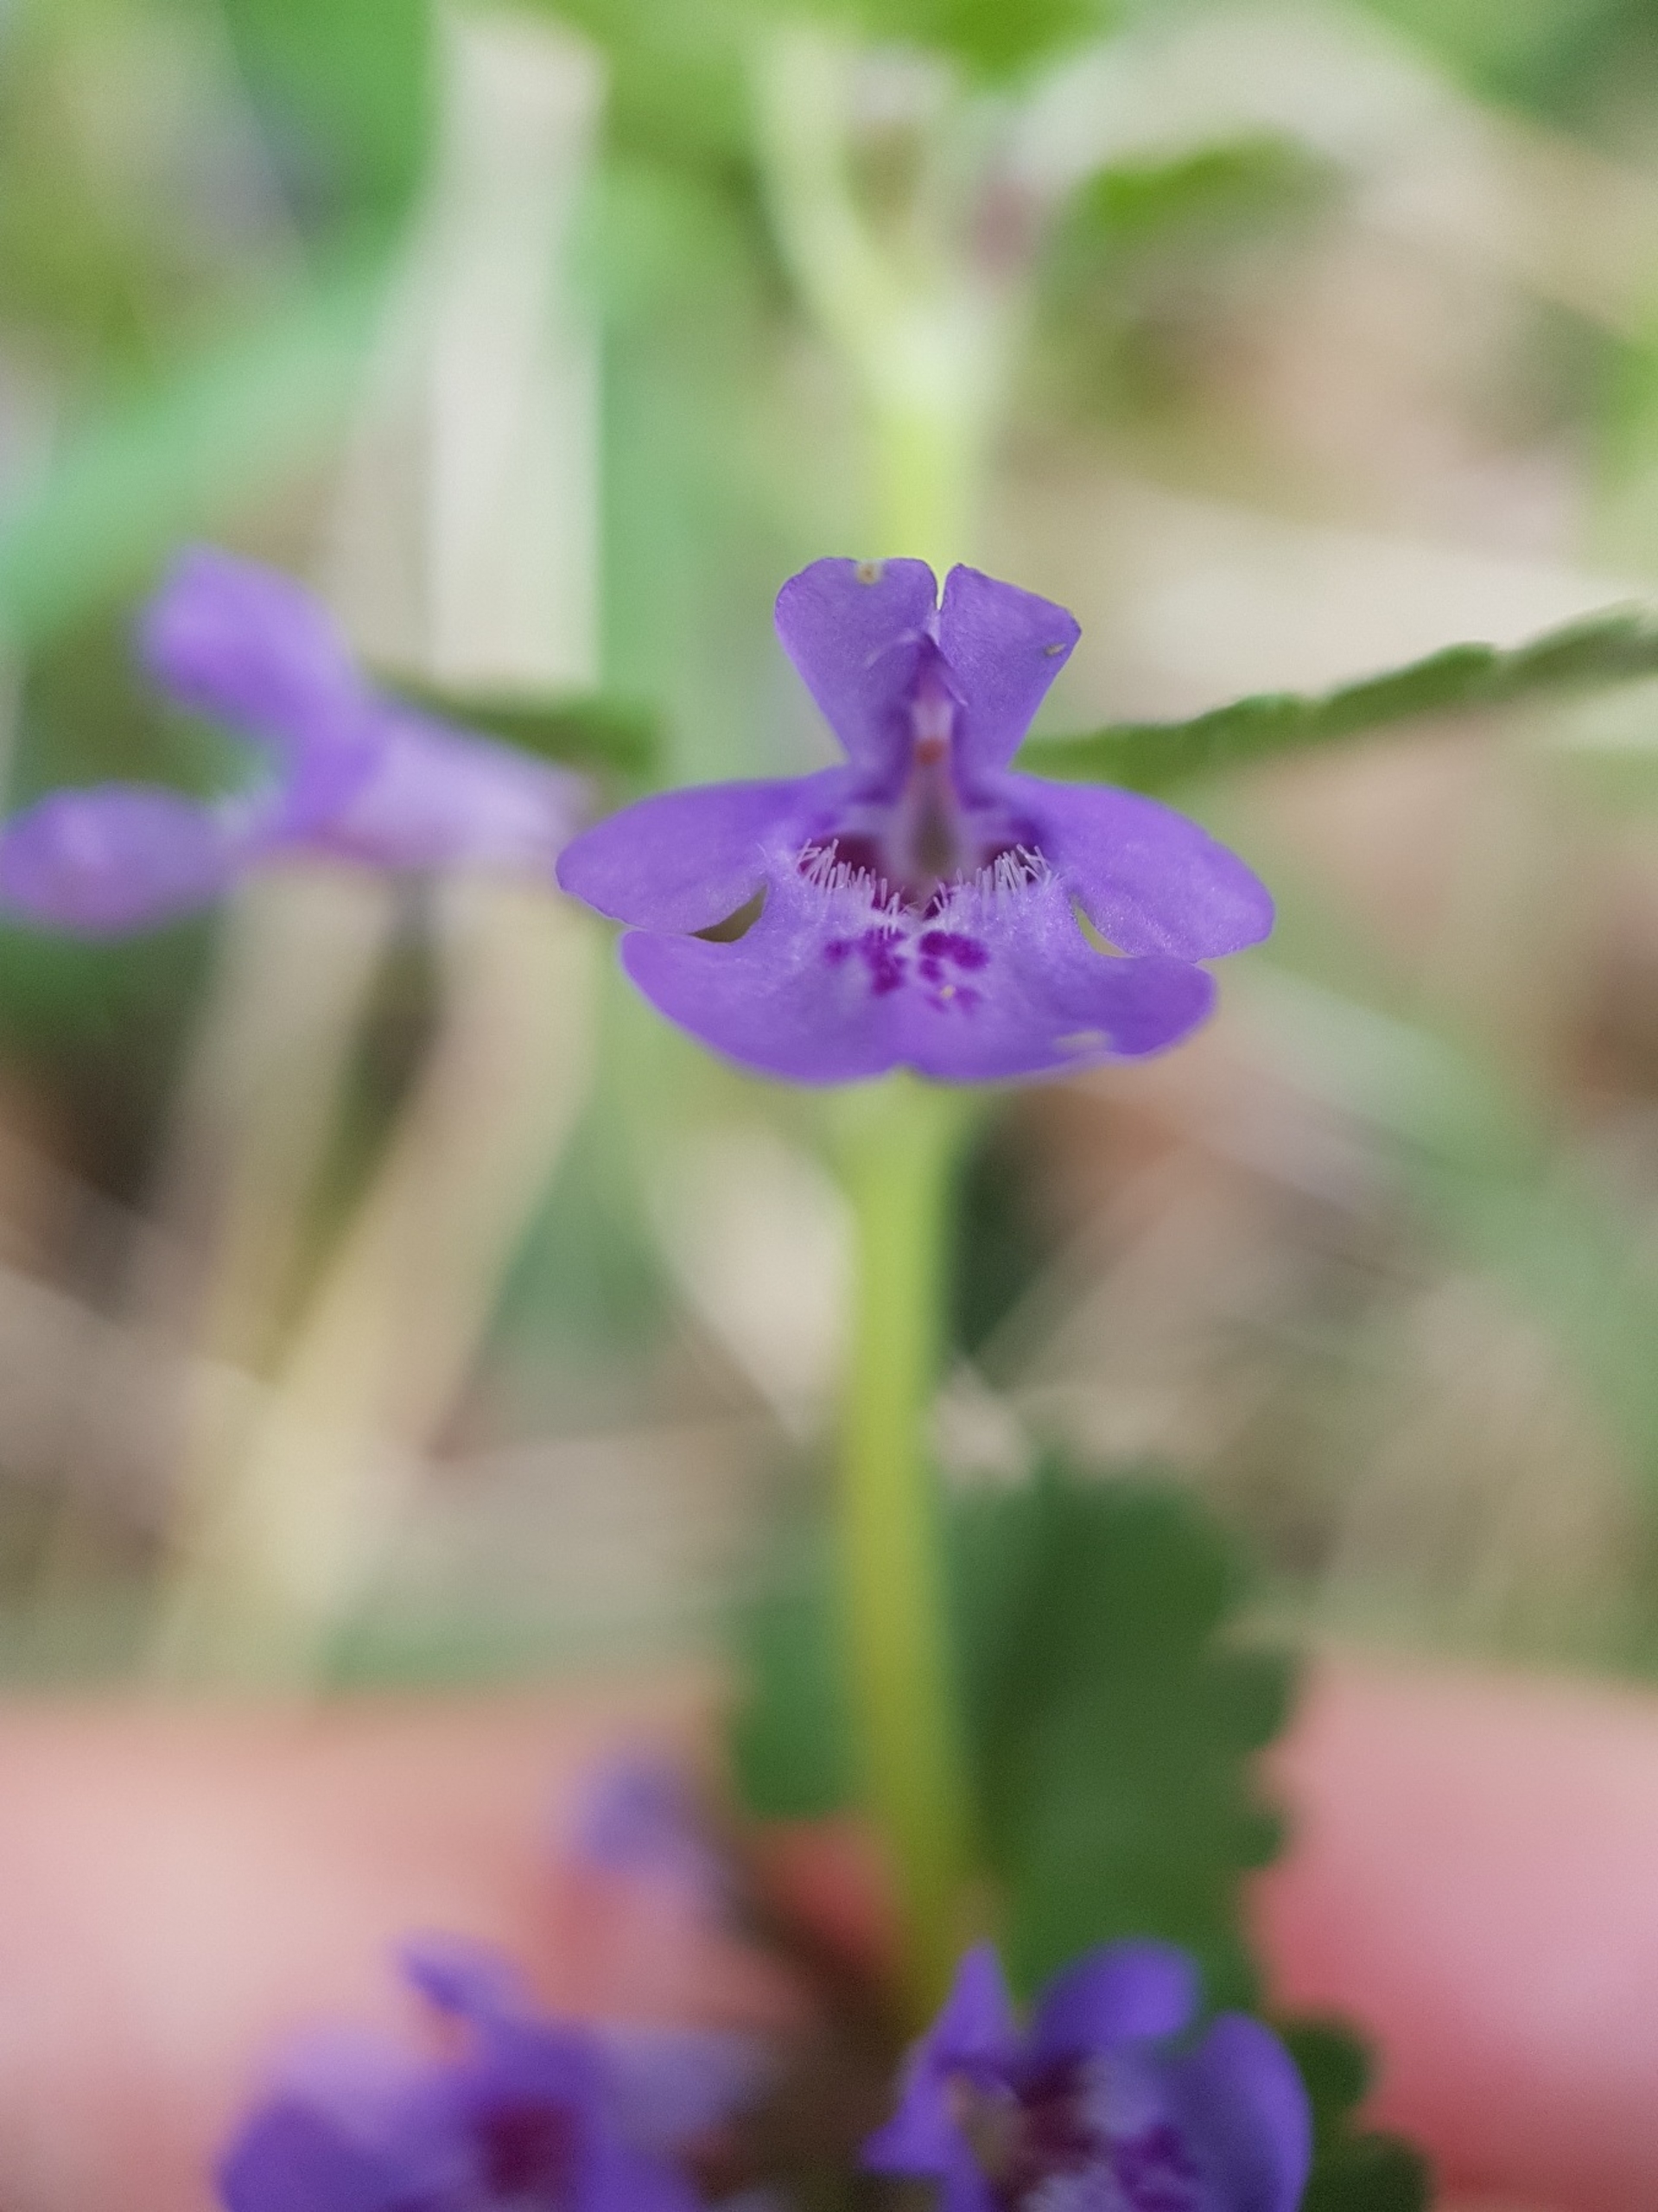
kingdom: Plantae
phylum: Tracheophyta
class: Magnoliopsida
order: Lamiales
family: Lamiaceae
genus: Glechoma
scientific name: Glechoma hederacea
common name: Korsknap
